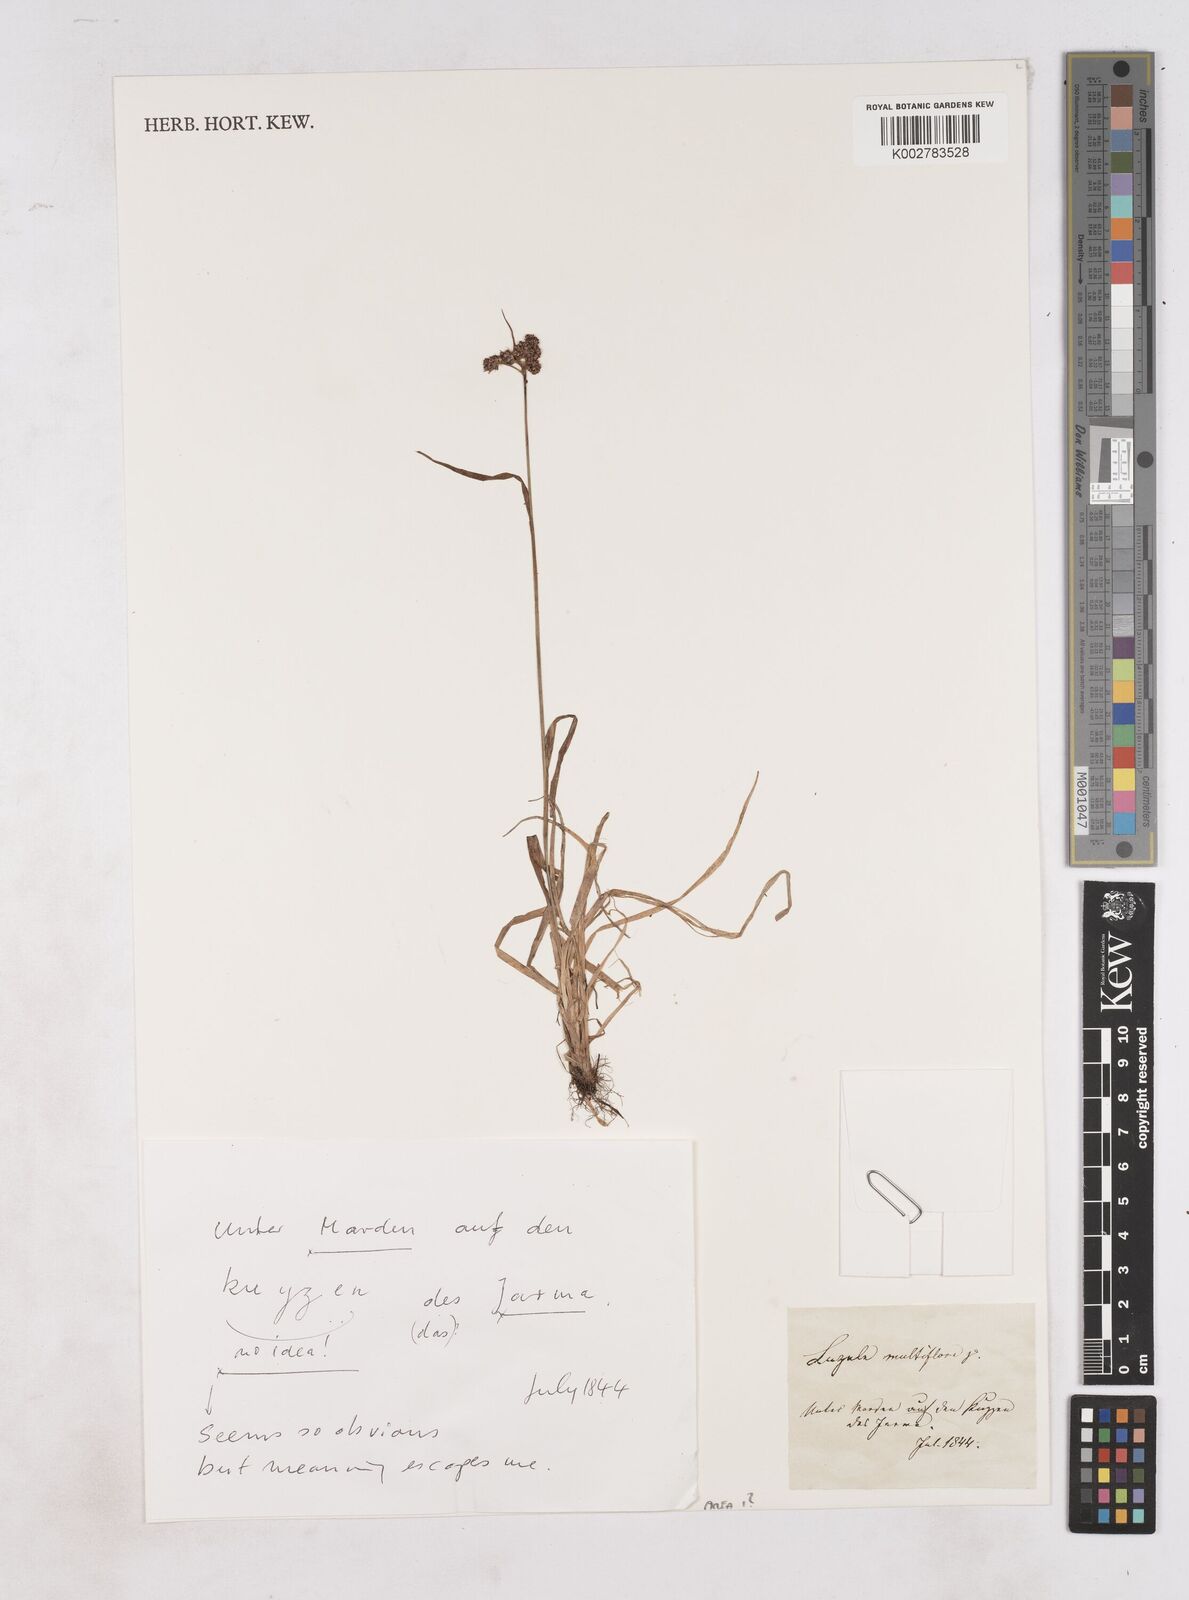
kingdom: Plantae
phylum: Tracheophyta
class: Liliopsida
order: Poales
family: Juncaceae
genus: Luzula
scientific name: Luzula multiflora
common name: Heath wood-rush
